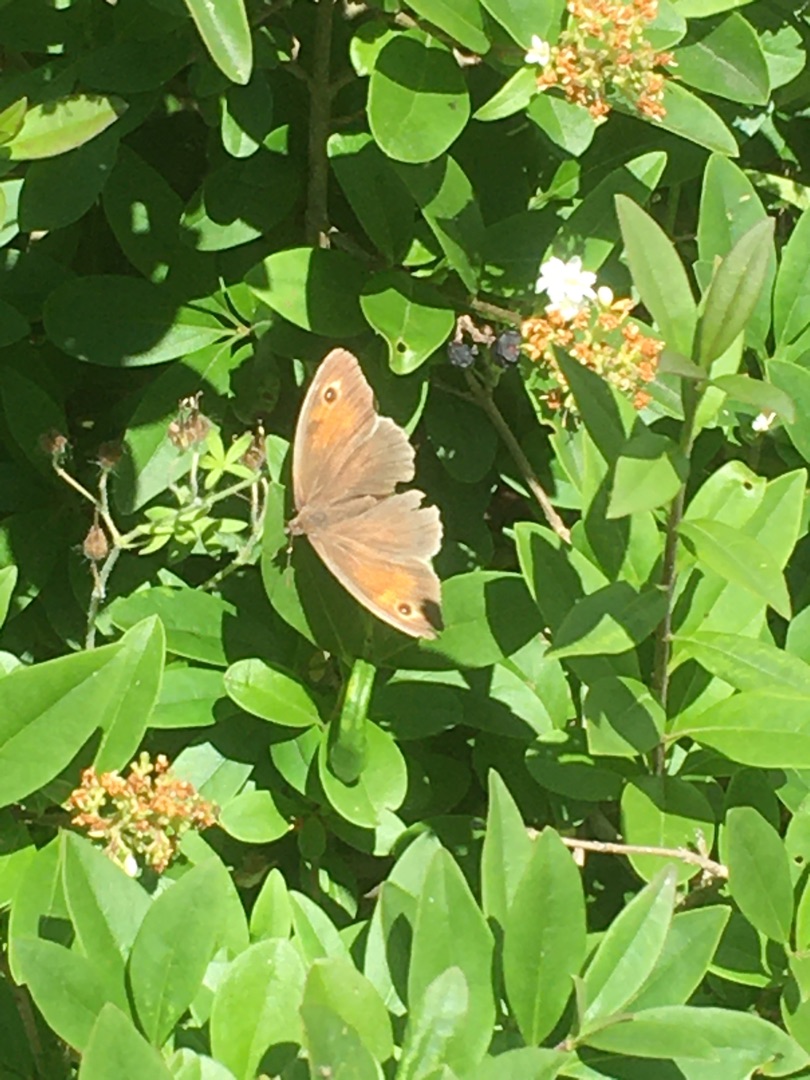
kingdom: Animalia
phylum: Arthropoda
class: Insecta
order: Lepidoptera
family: Nymphalidae
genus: Maniola
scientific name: Maniola jurtina
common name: Græsrandøje
